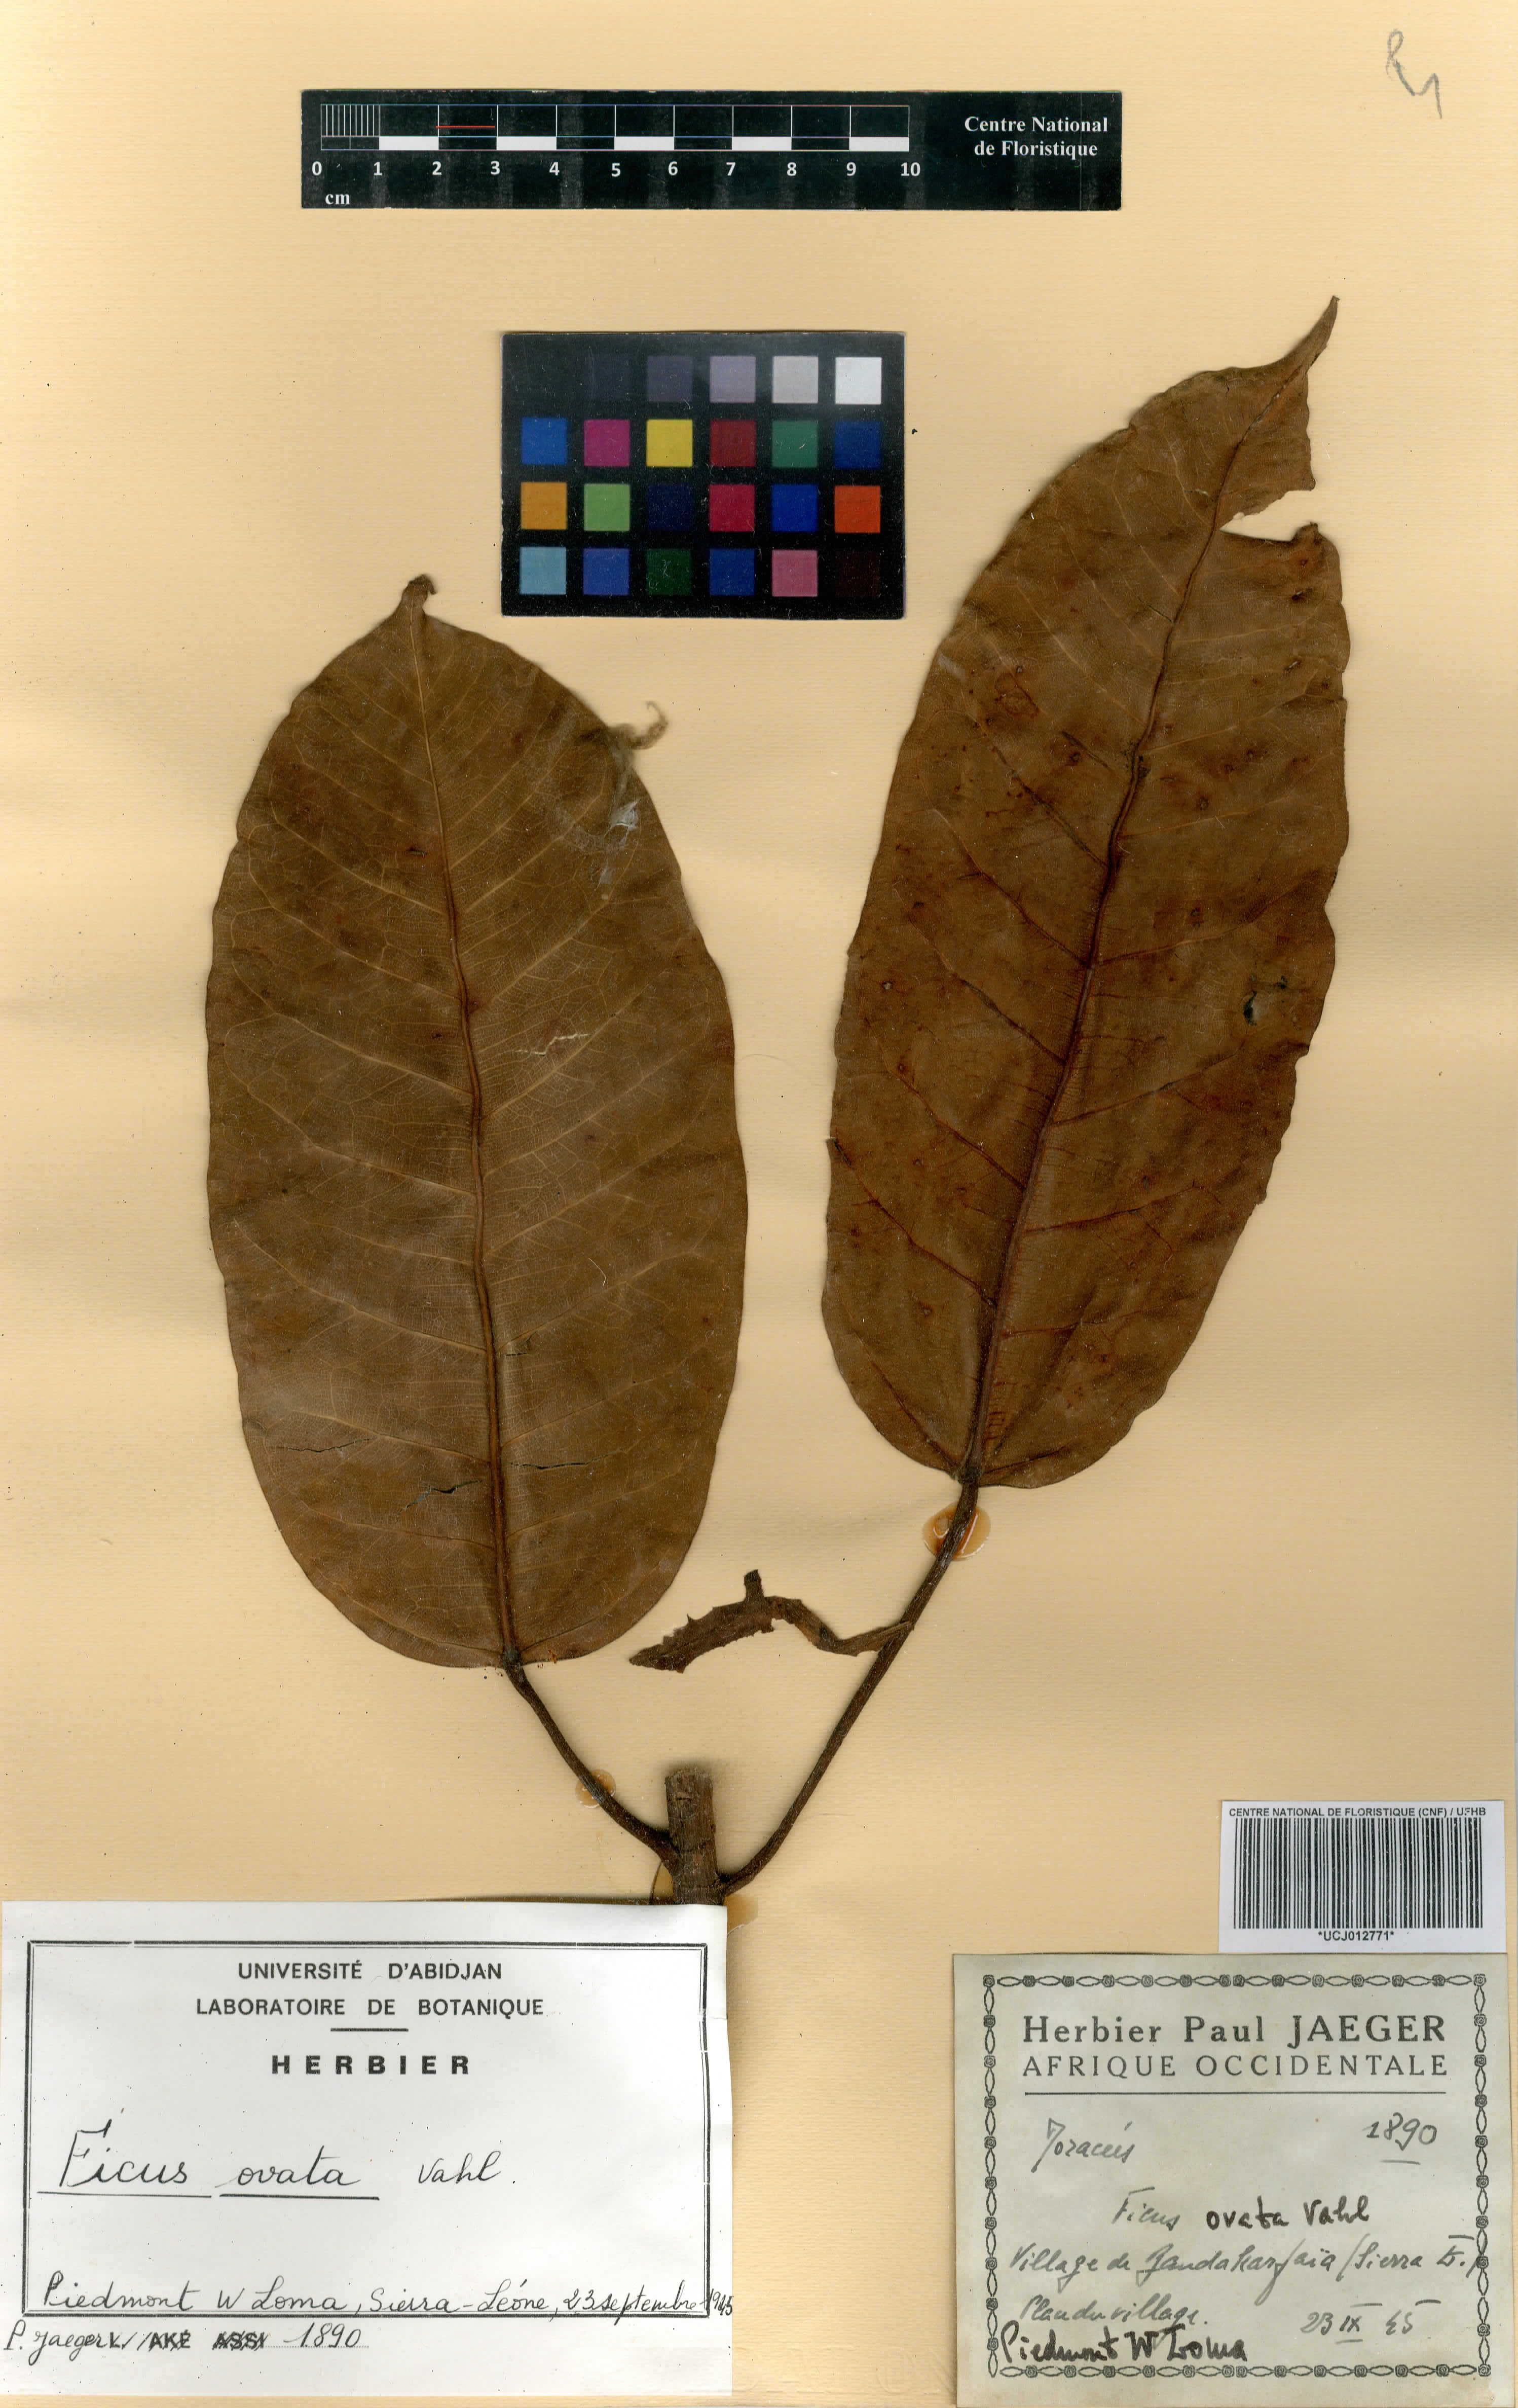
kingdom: Plantae
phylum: Tracheophyta
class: Magnoliopsida
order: Rosales
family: Moraceae
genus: Ficus
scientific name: Ficus laurifolia
